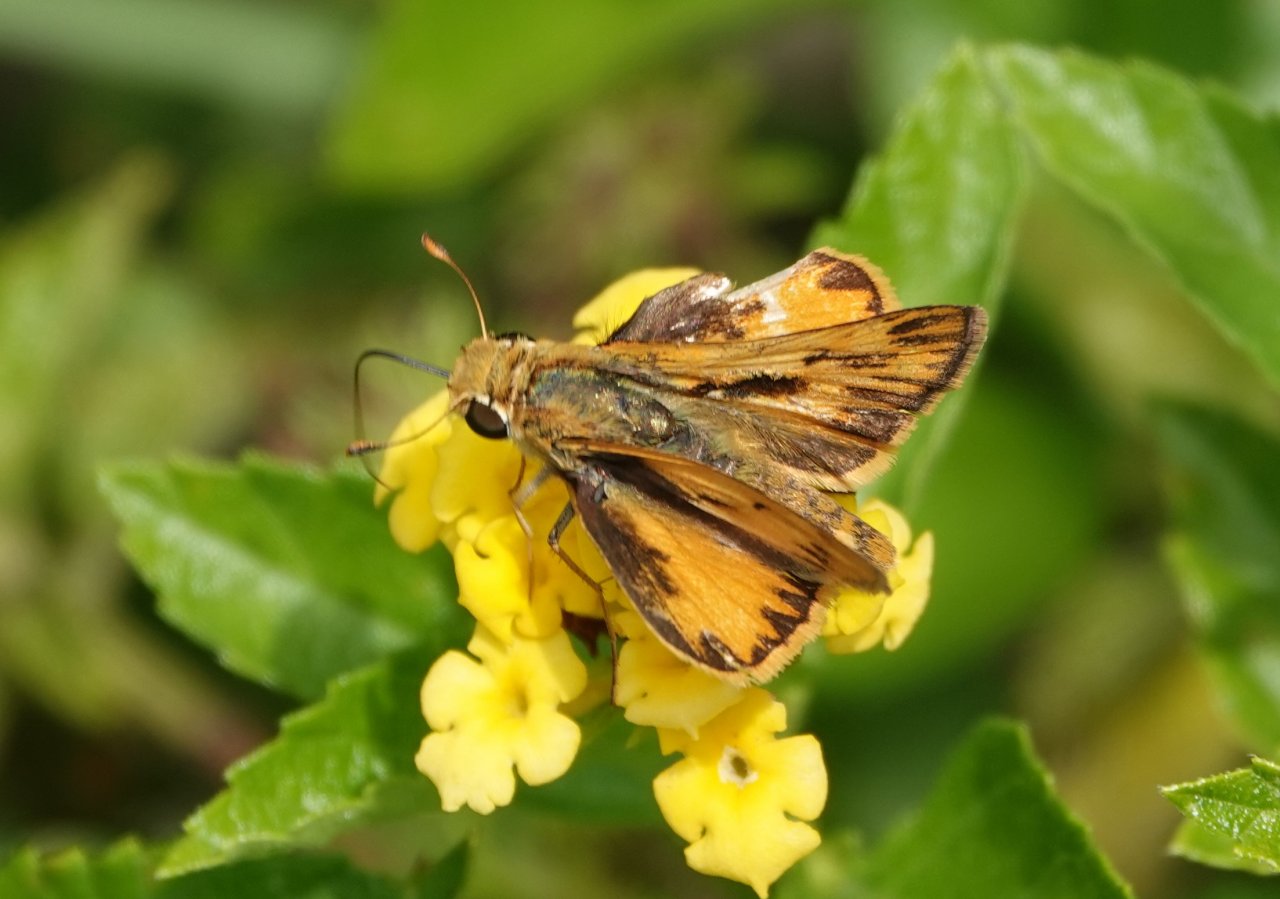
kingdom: Animalia
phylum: Arthropoda
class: Insecta
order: Lepidoptera
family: Hesperiidae
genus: Hylephila
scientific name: Hylephila phyleus
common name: Fiery Skipper
